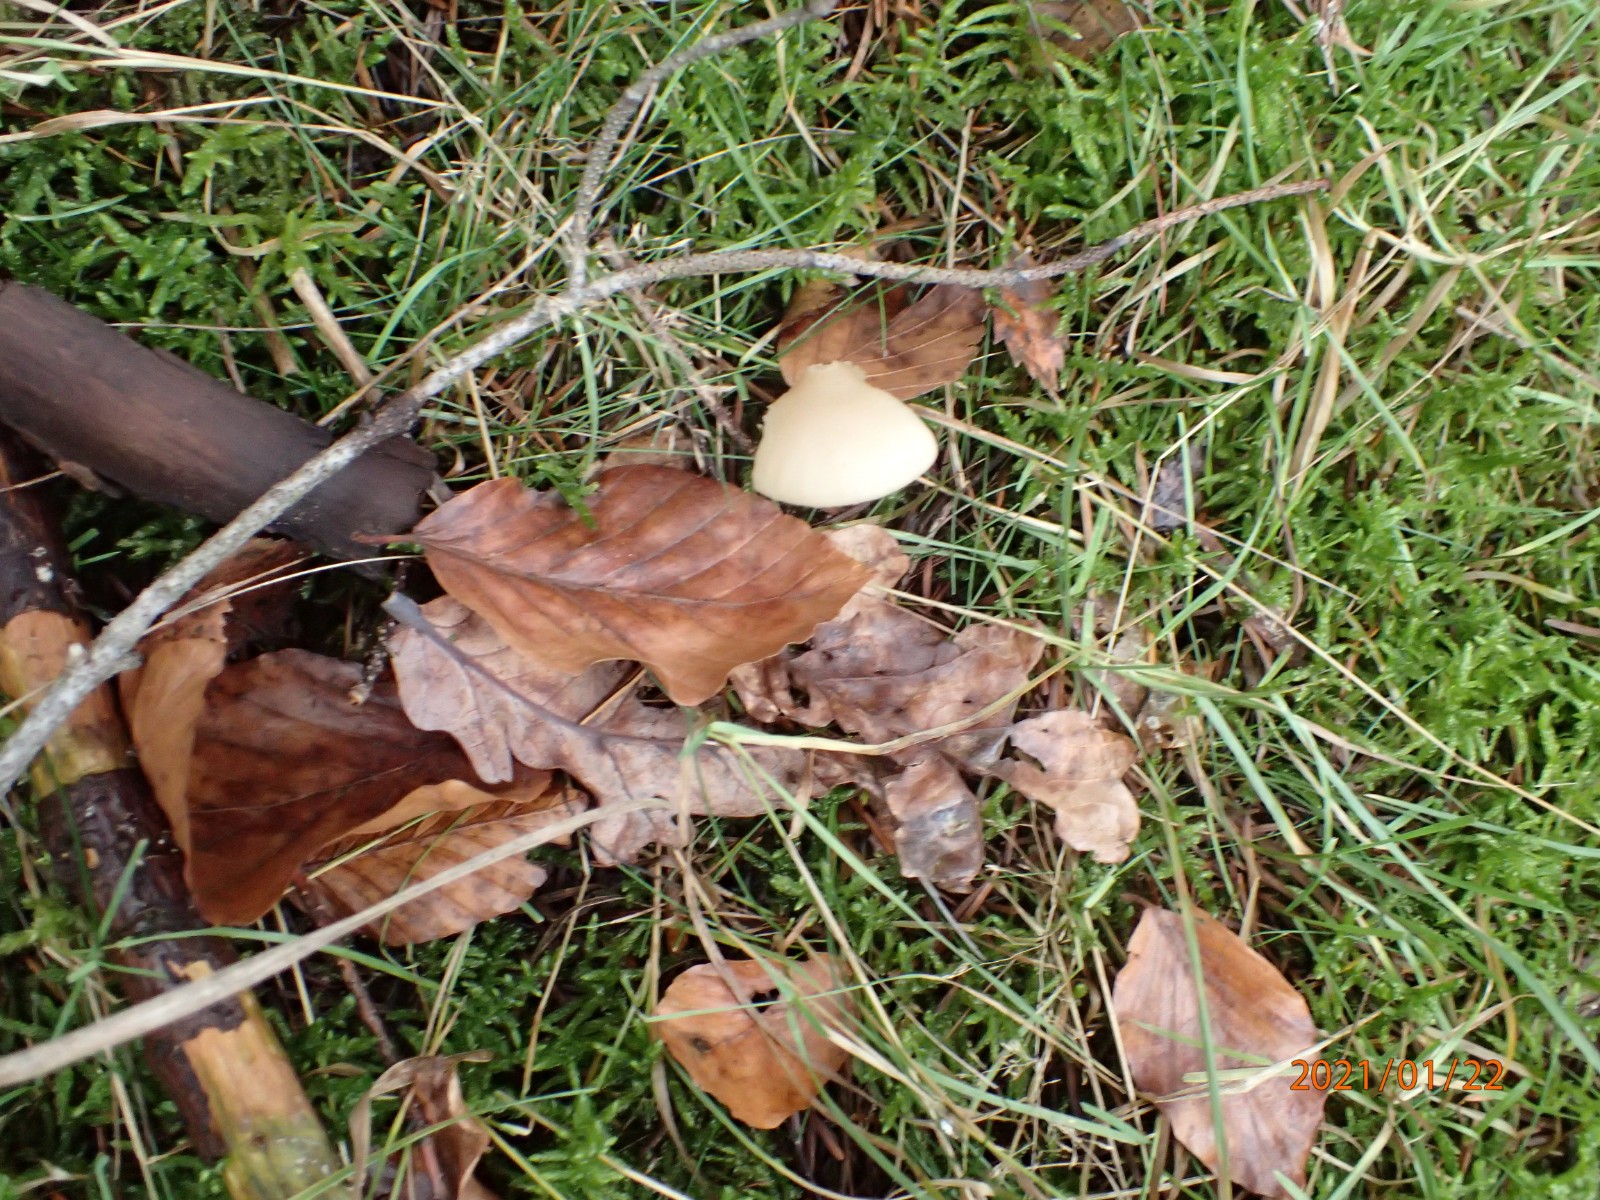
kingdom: Fungi
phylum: Basidiomycota
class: Agaricomycetes
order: Agaricales
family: Tricholomataceae
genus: Clitocybe
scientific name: Clitocybe fragrans
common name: vellugtende tragthat
